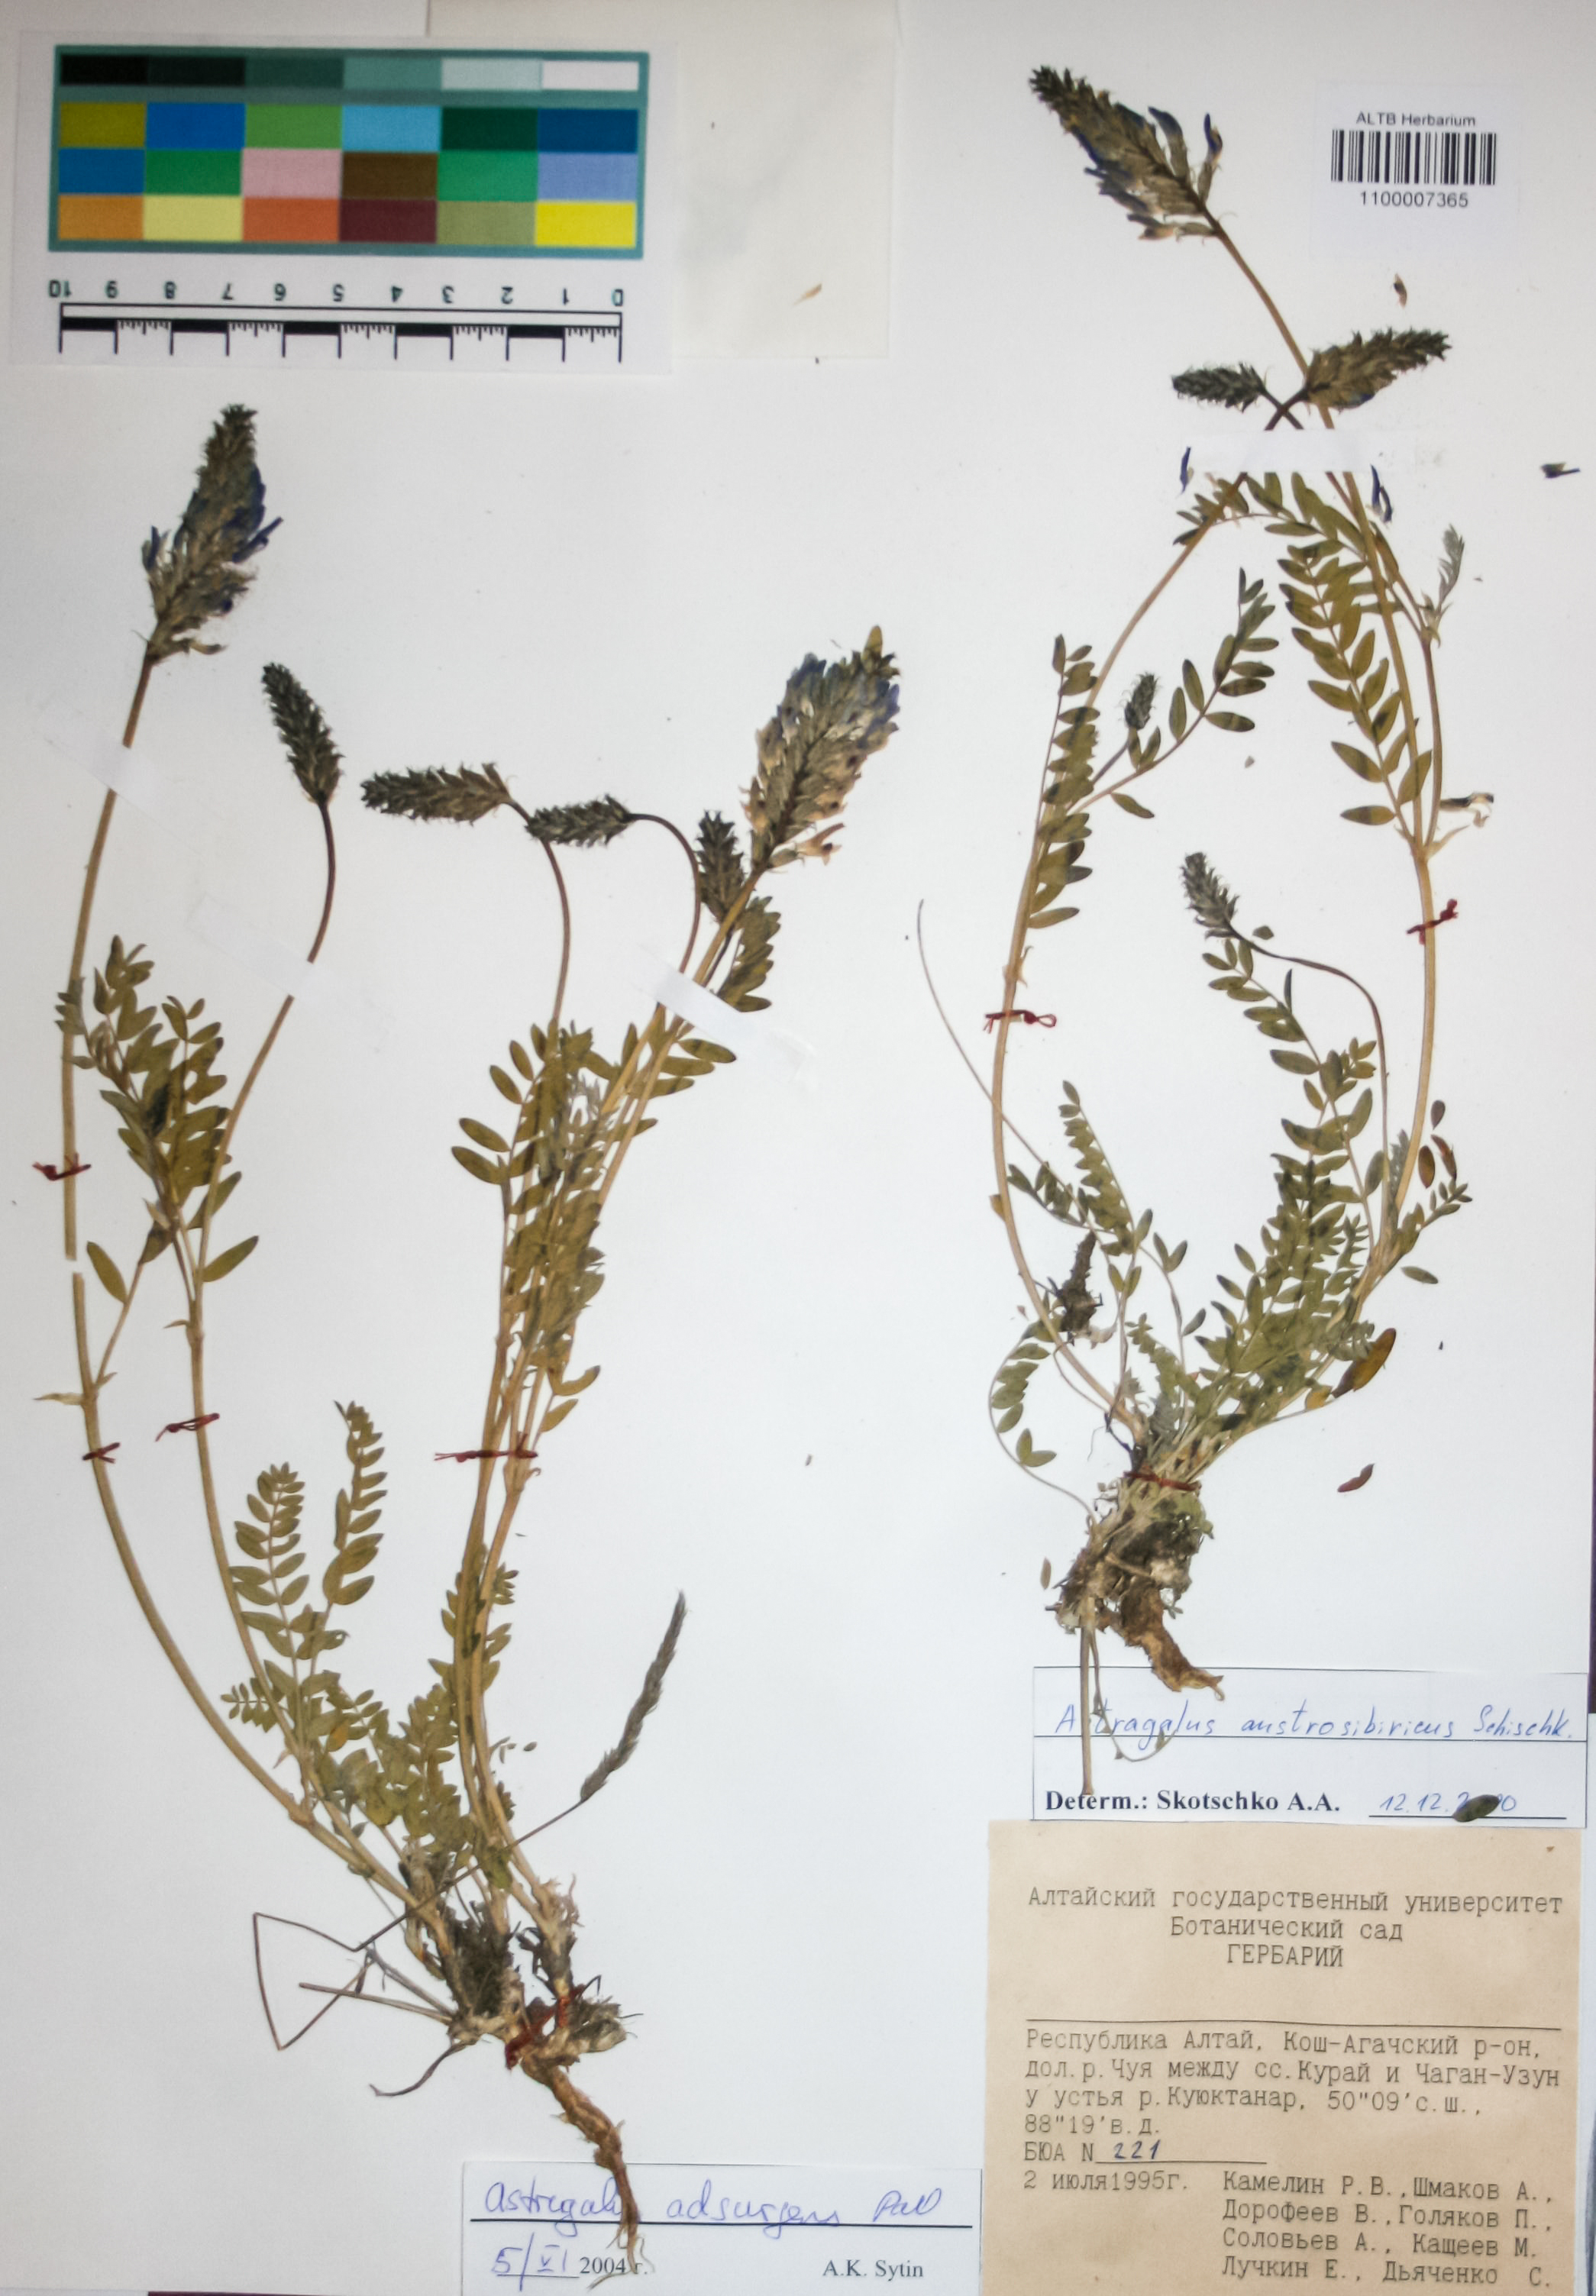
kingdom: Plantae
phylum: Tracheophyta
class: Magnoliopsida
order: Fabales
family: Fabaceae
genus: Astragalus
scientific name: Astragalus laxmannii
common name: Laxmann's milk-vetch
